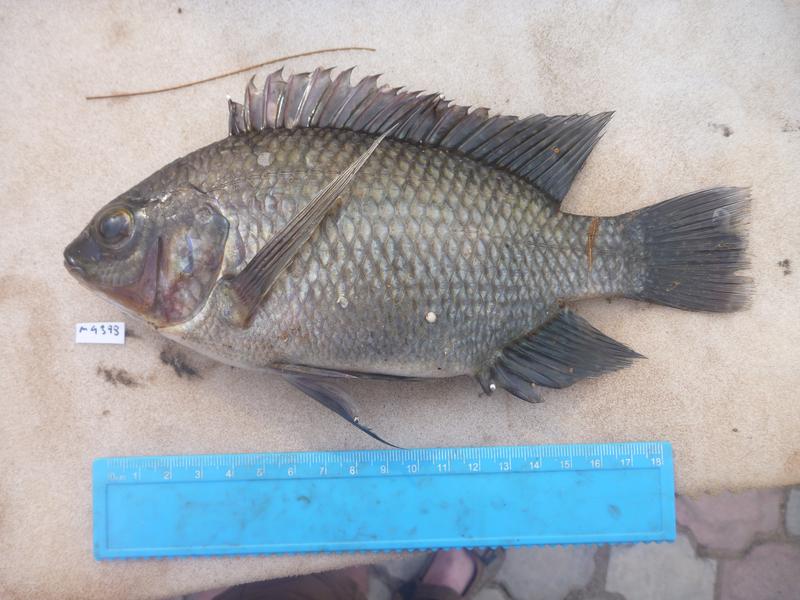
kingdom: Animalia
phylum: Chordata
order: Perciformes
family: Cichlidae
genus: Oreochromis
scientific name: Oreochromis variabilis
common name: Victoria tilapia
